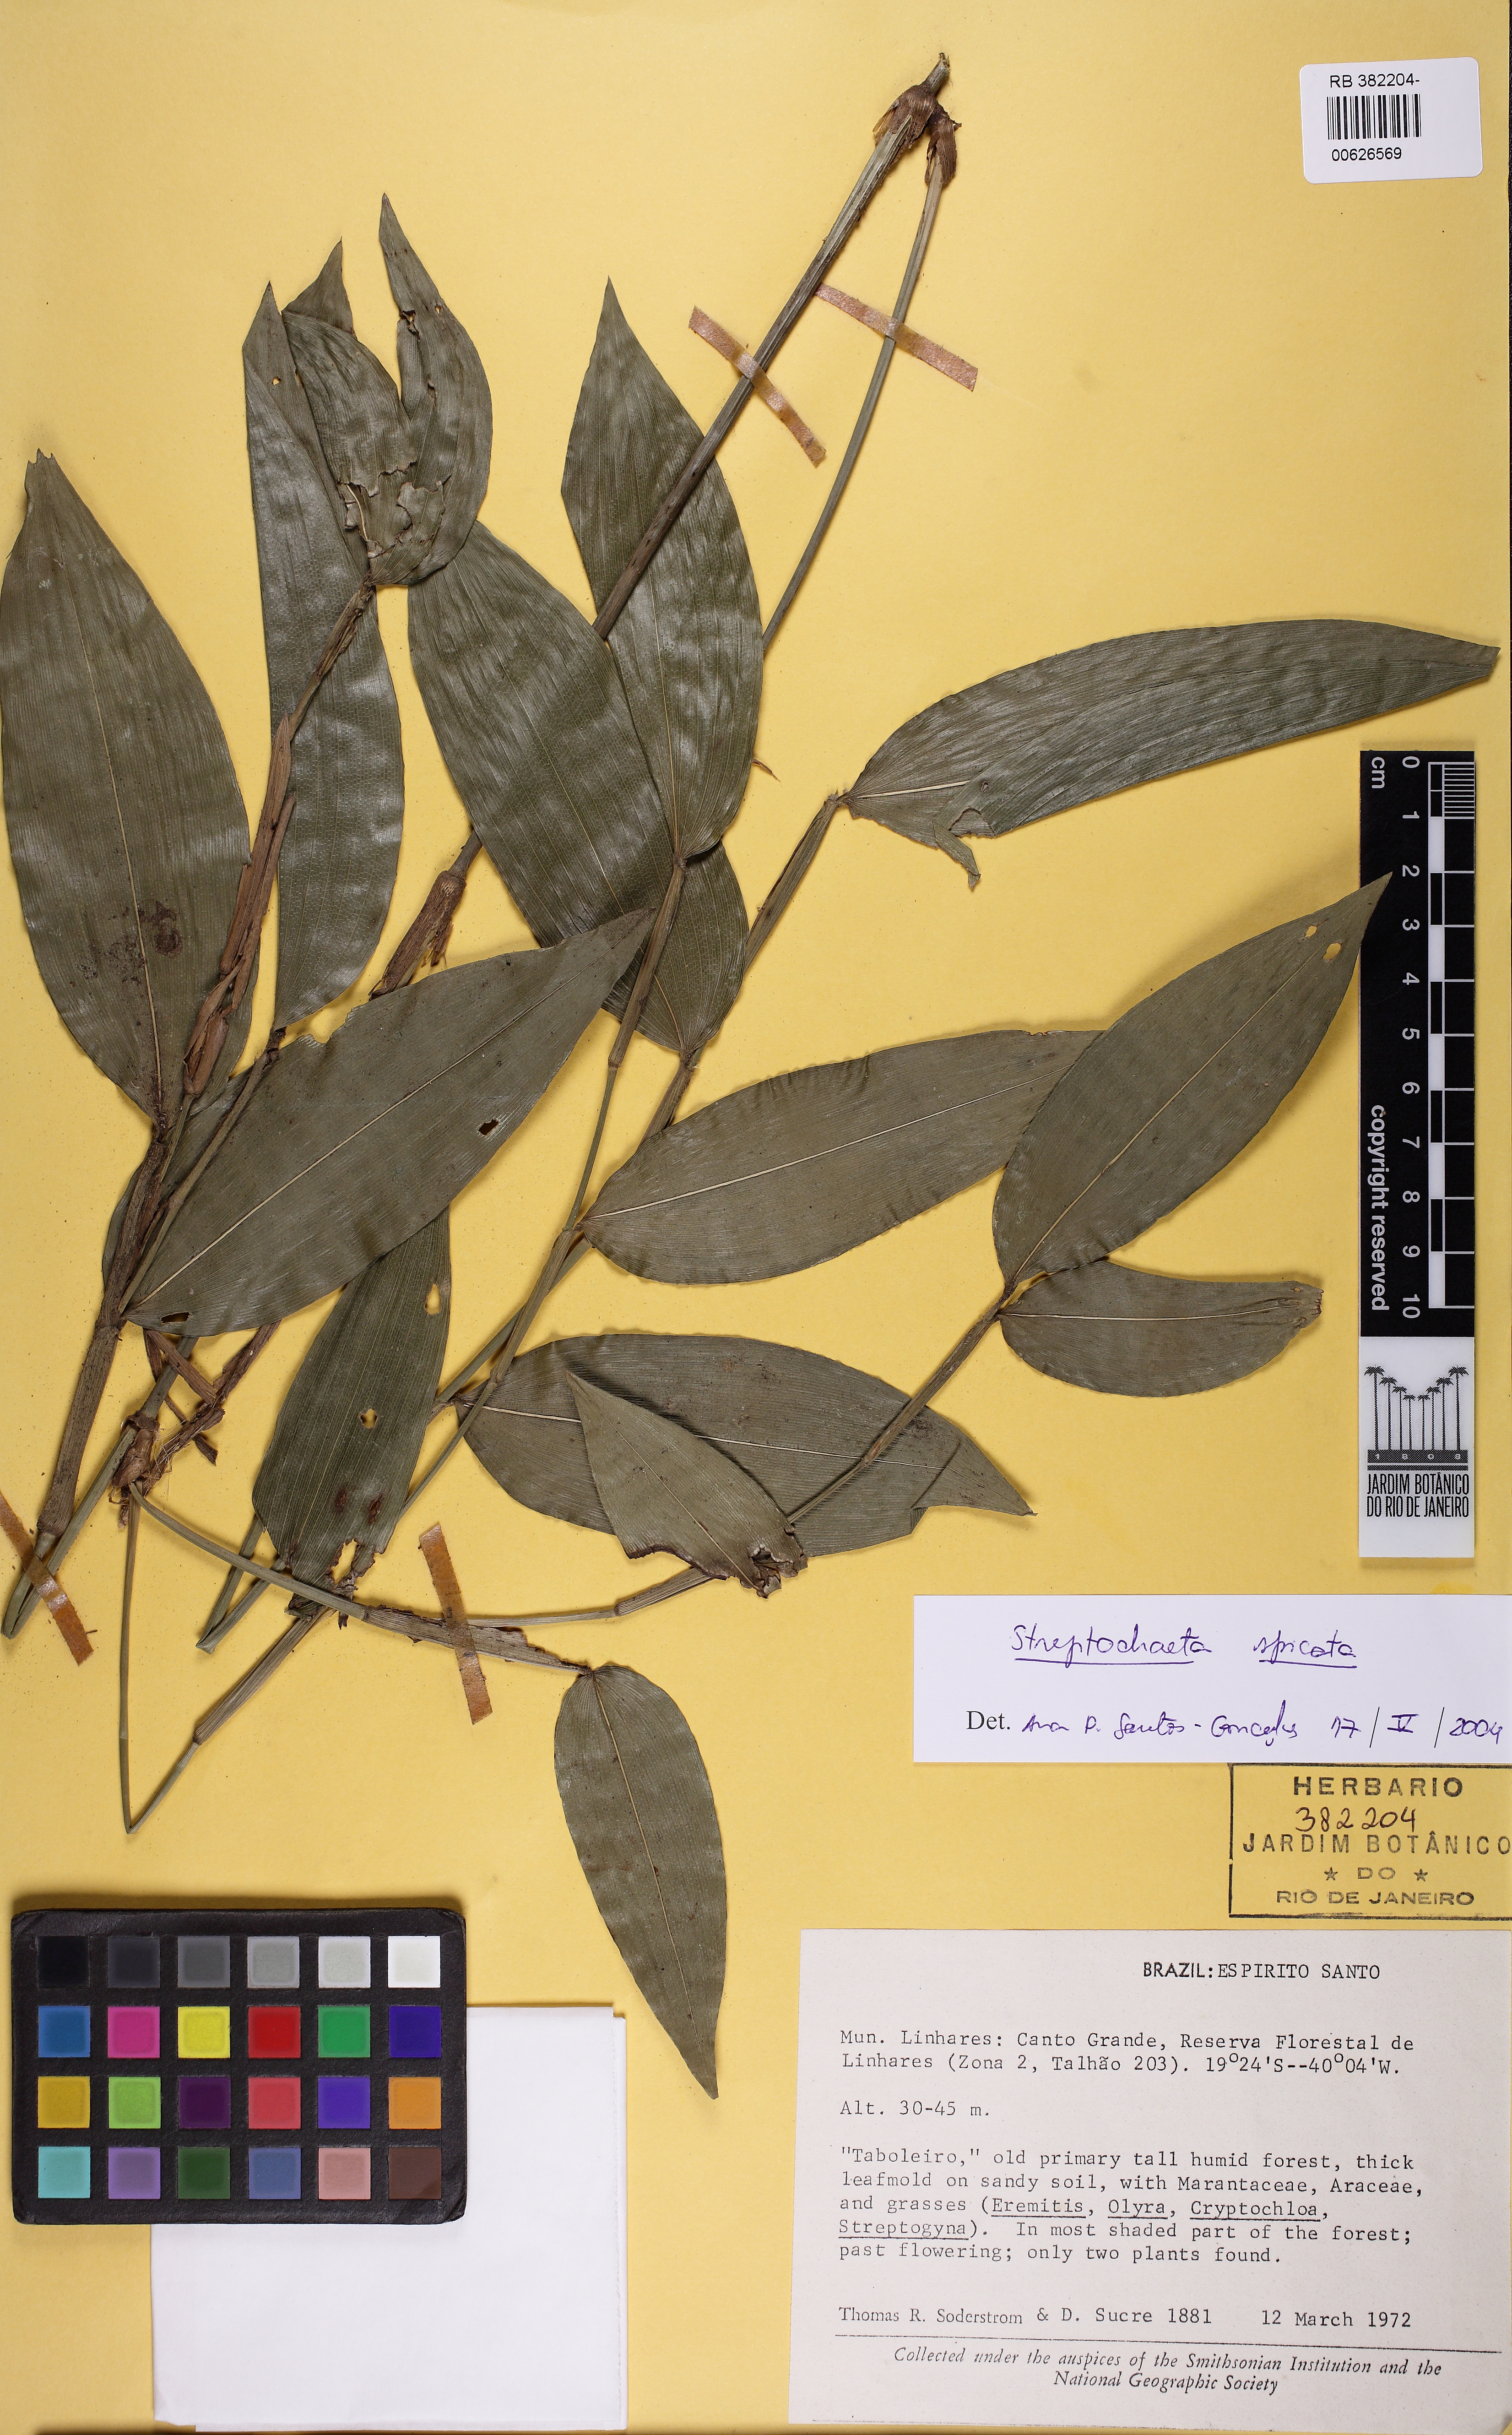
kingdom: Plantae
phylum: Tracheophyta
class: Liliopsida
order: Poales
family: Poaceae
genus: Streptochaeta
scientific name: Streptochaeta spicata
